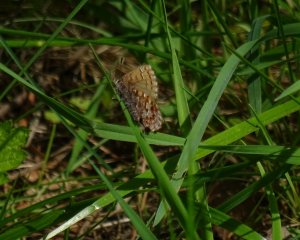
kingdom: Animalia
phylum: Arthropoda
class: Insecta
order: Lepidoptera
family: Lycaenidae
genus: Incisalia
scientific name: Incisalia niphon
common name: Eastern Pine Elfin
